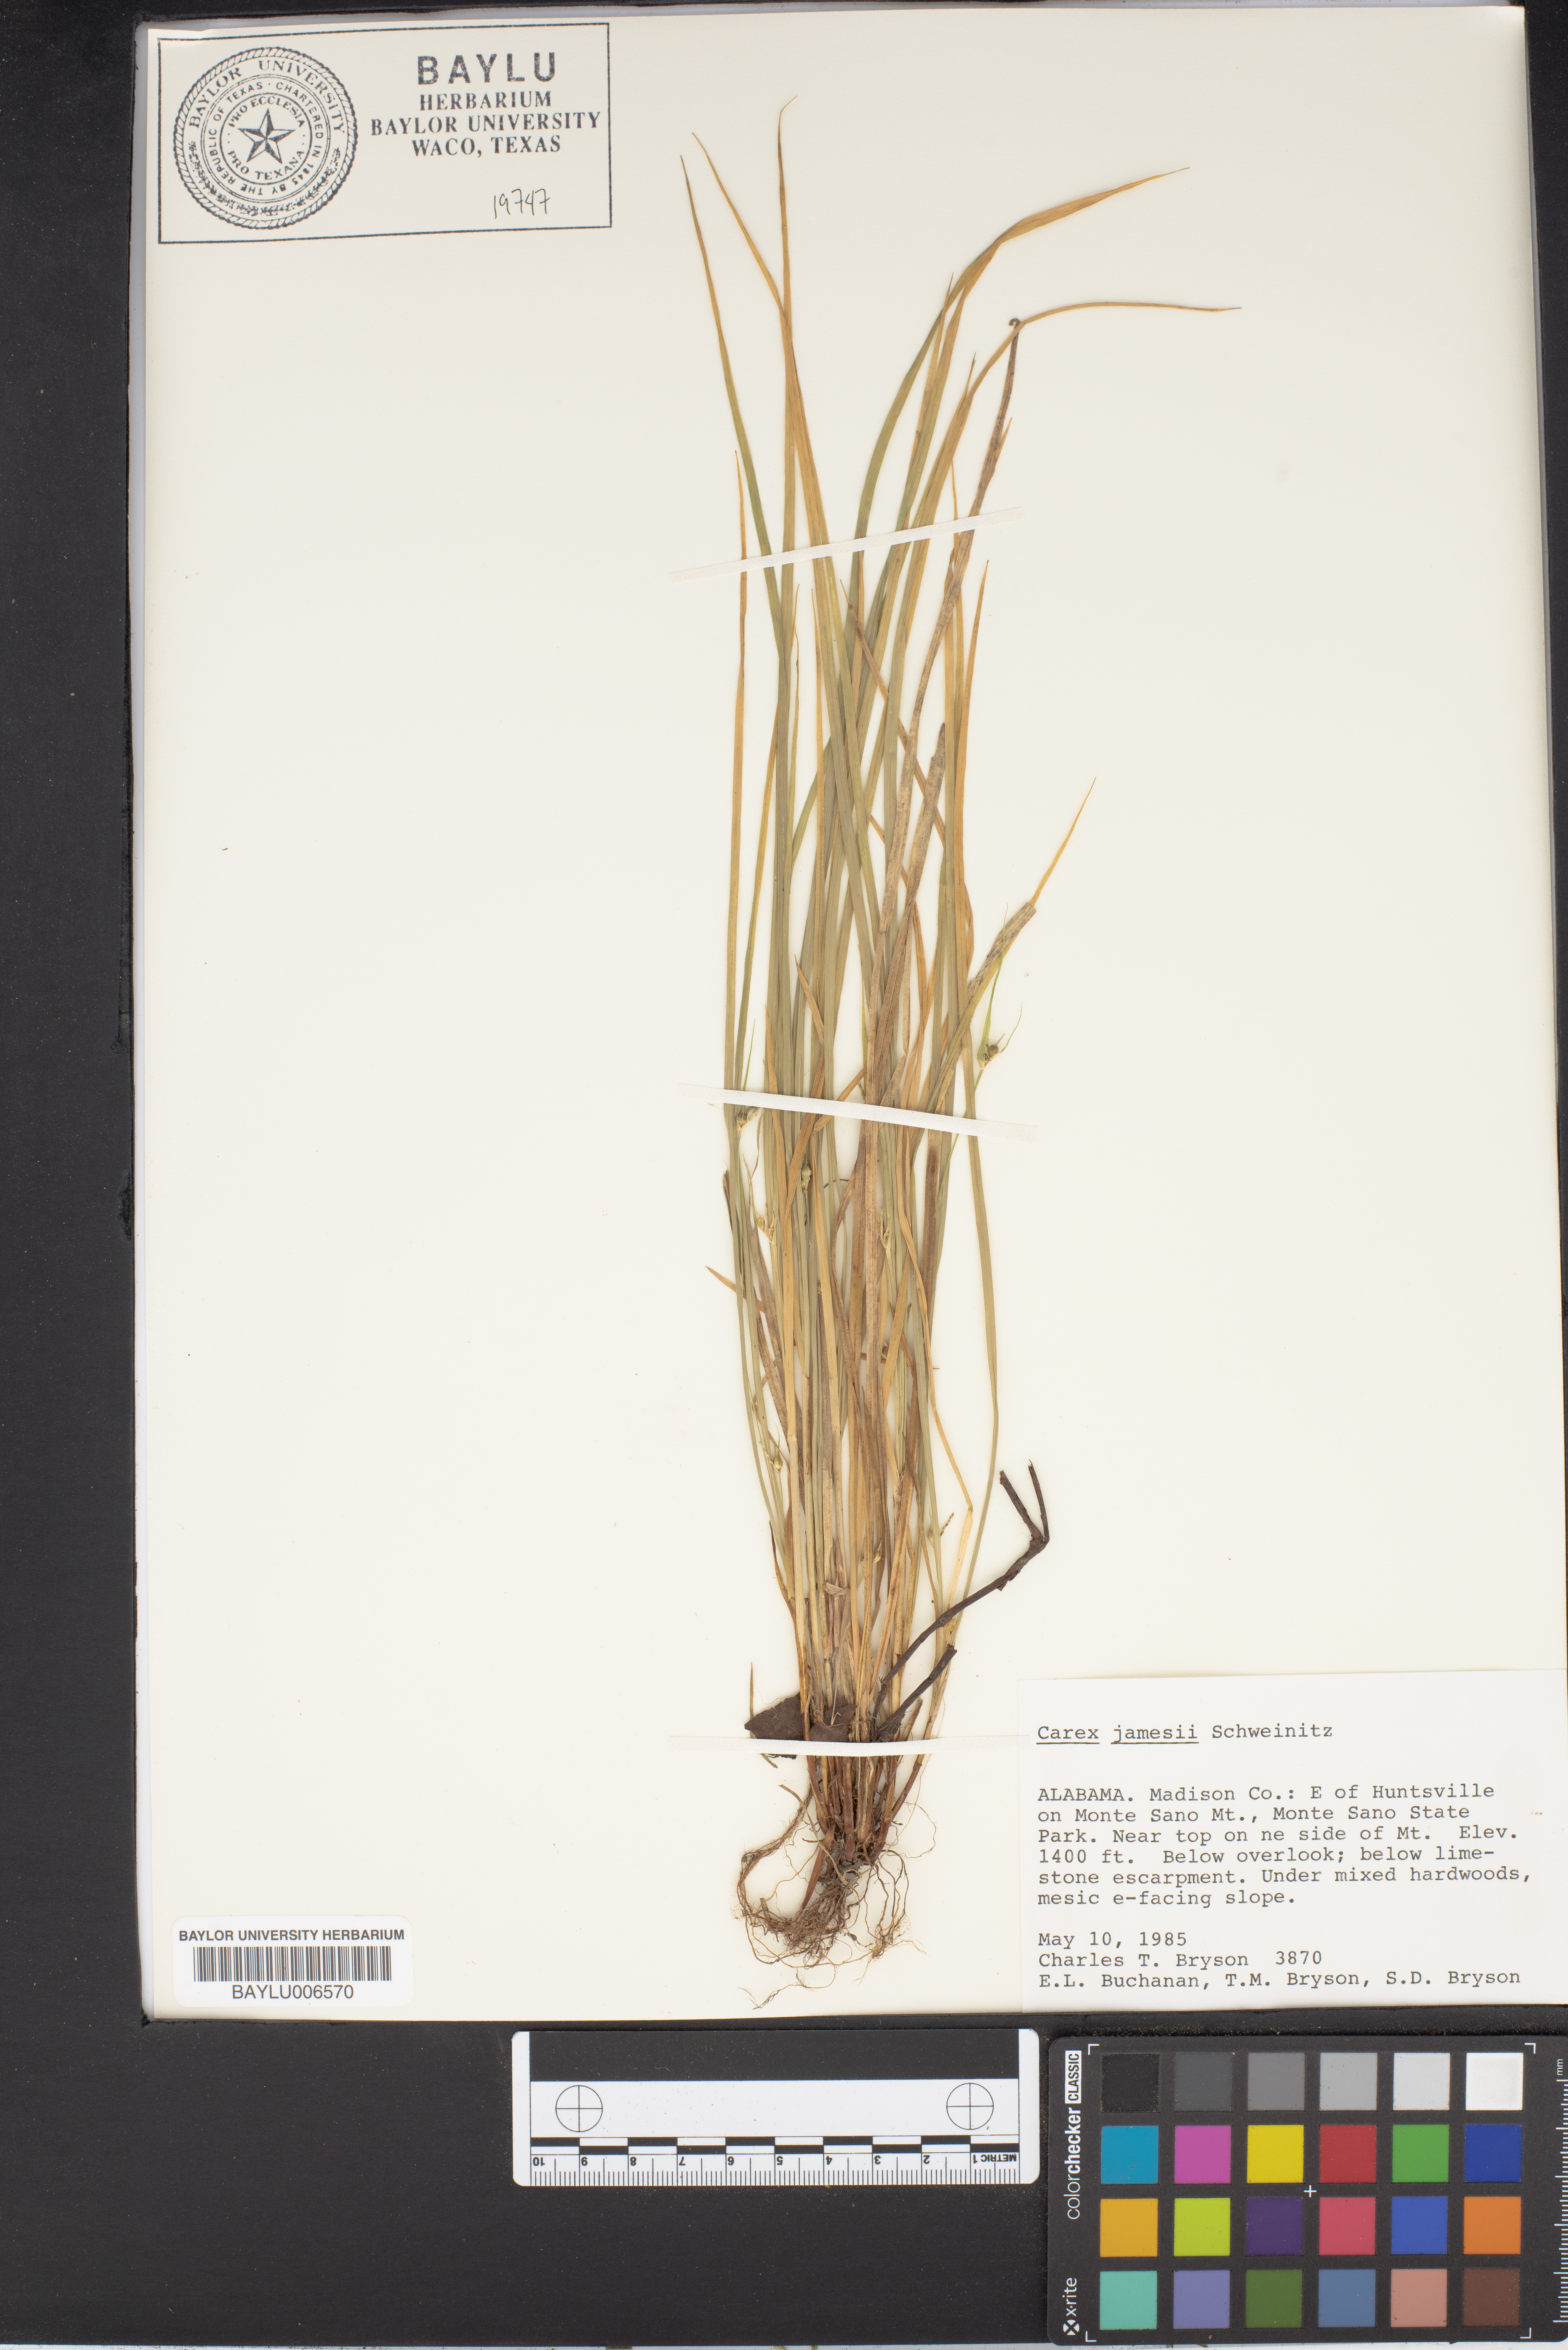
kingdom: Plantae
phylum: Tracheophyta
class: Liliopsida
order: Poales
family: Cyperaceae
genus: Carex
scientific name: Carex jamesii
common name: Grass sedge
